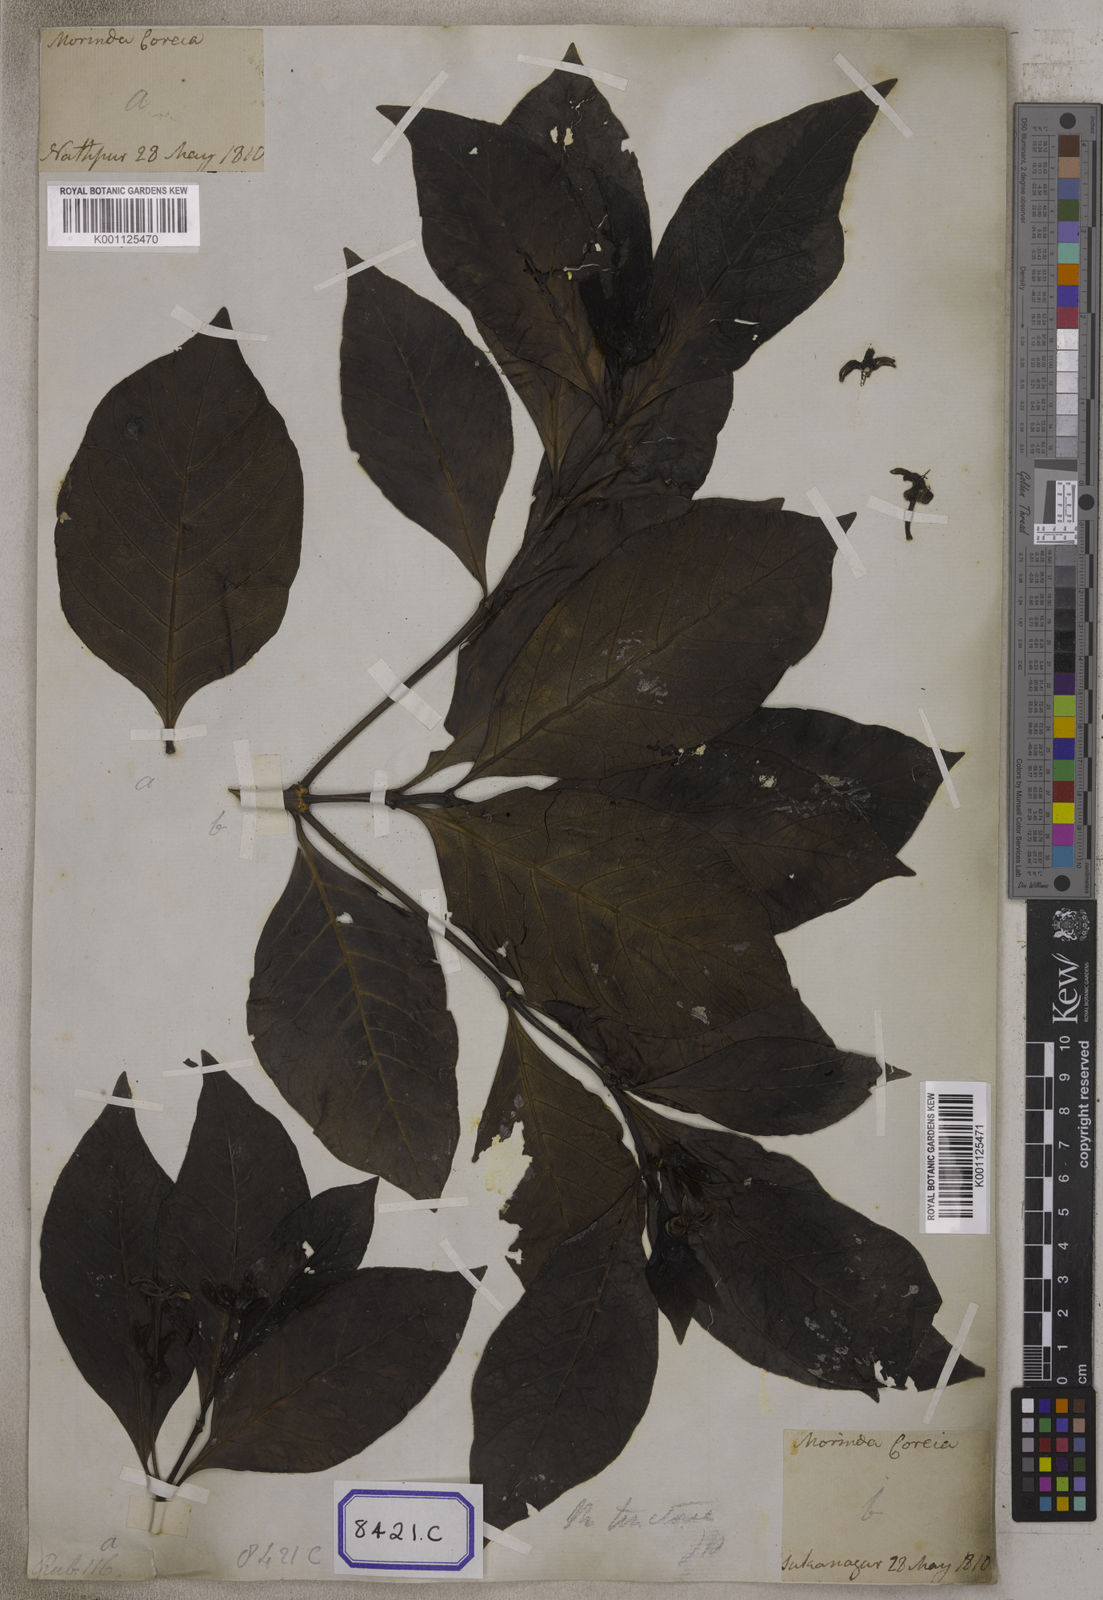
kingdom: Plantae
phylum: Tracheophyta
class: Magnoliopsida
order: Gentianales
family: Rubiaceae
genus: Morinda
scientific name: Morinda coreia
